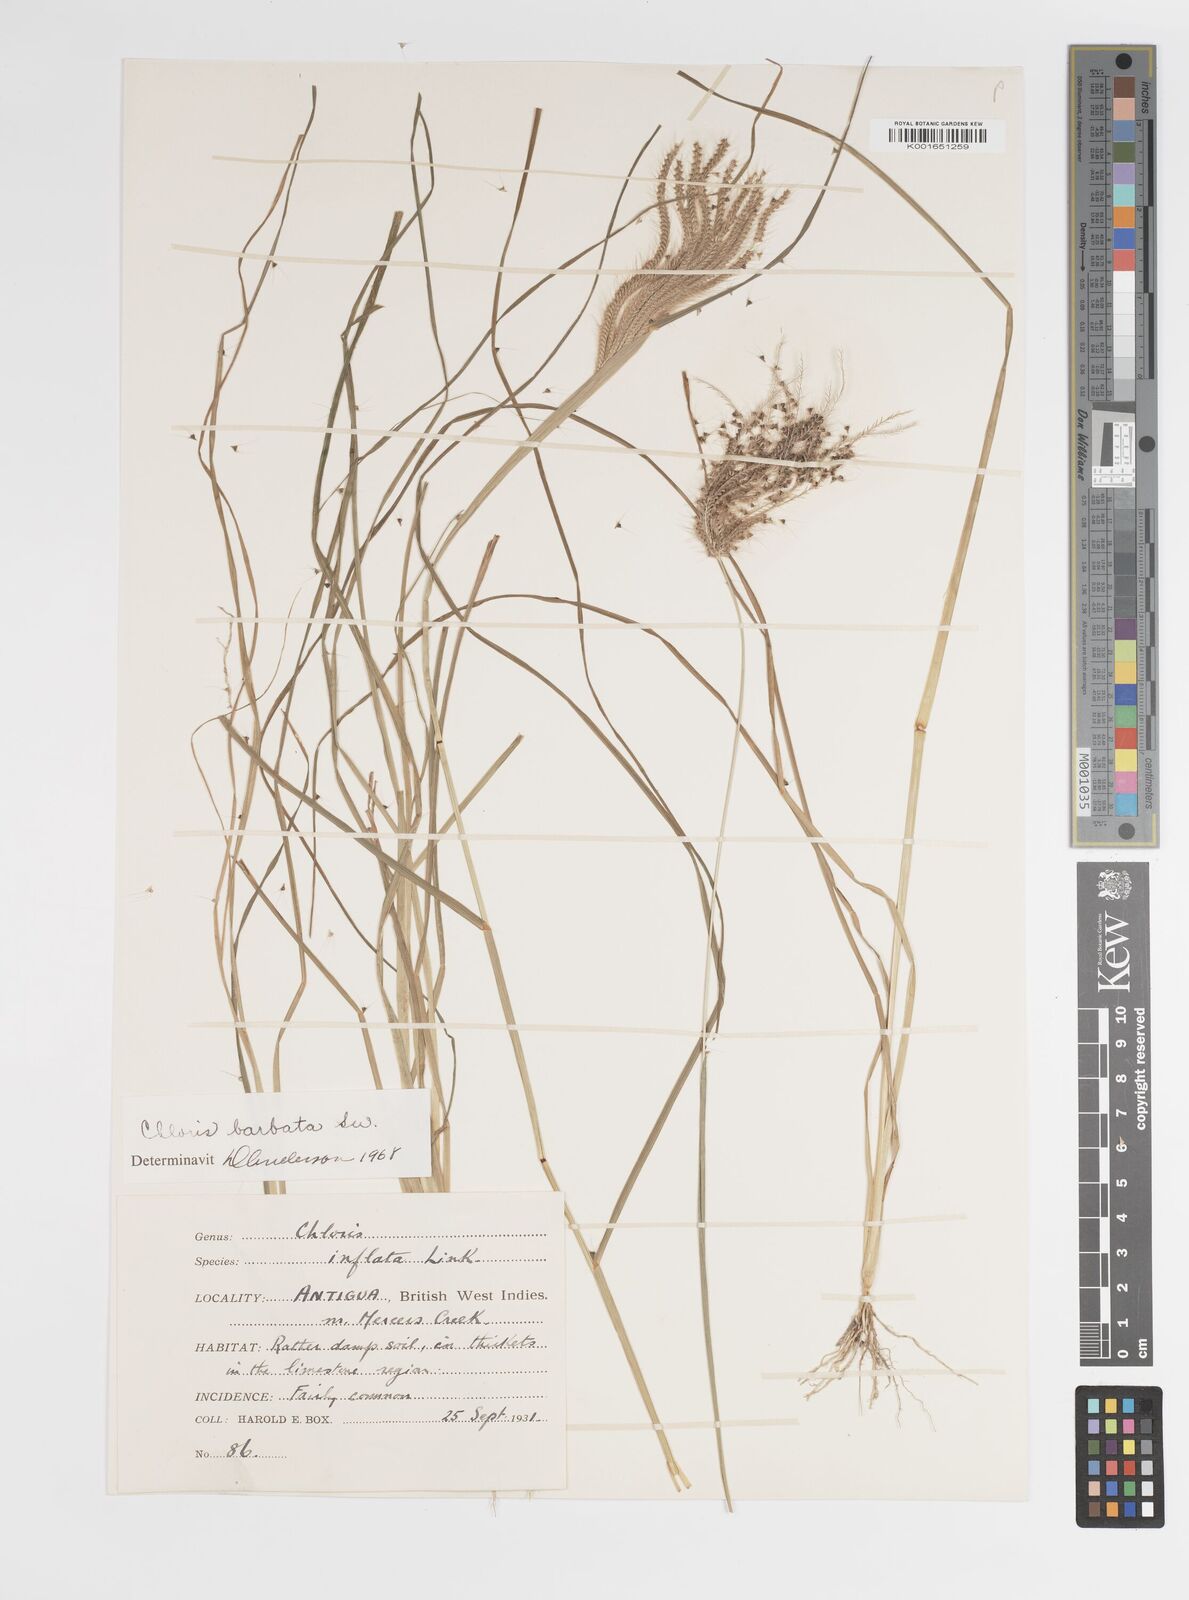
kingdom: Plantae
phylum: Tracheophyta
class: Liliopsida
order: Poales
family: Poaceae
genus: Chloris
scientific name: Chloris barbata
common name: Swollen fingergrass
